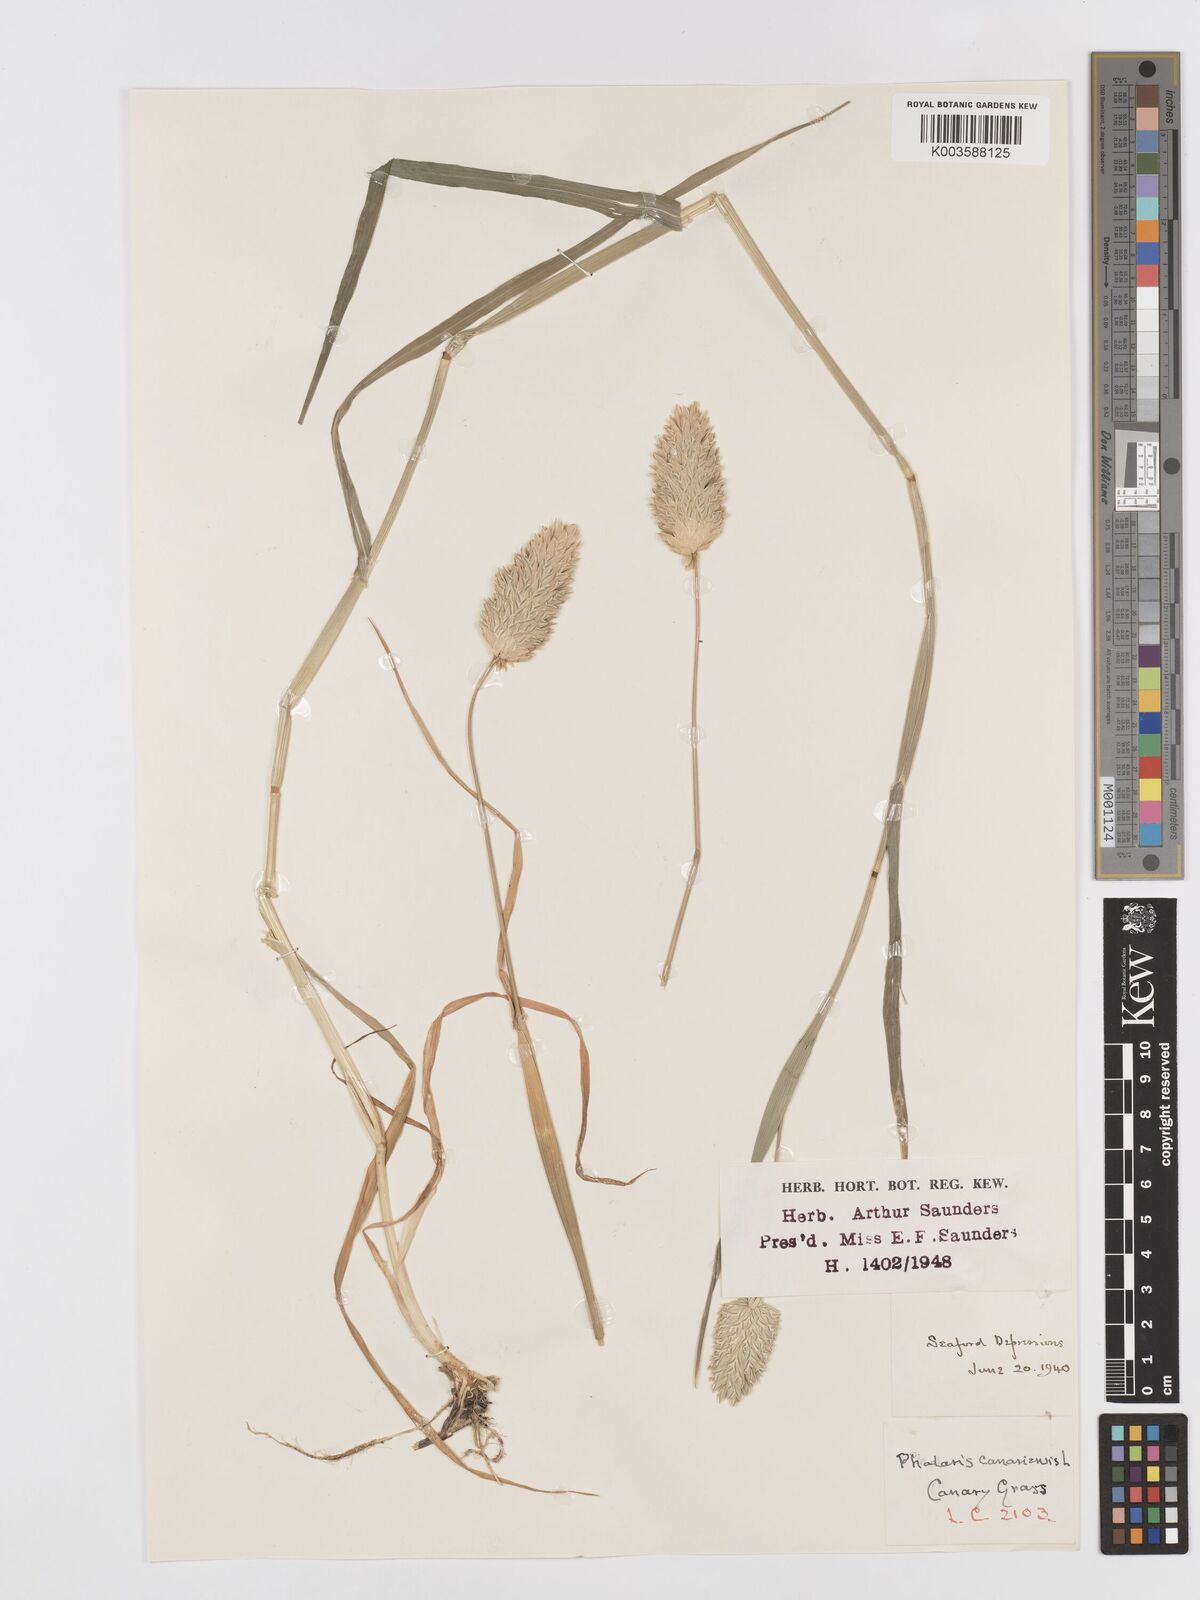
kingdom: Plantae
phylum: Tracheophyta
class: Liliopsida
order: Poales
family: Poaceae
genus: Phalaris
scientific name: Phalaris canariensis
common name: Annual canarygrass
